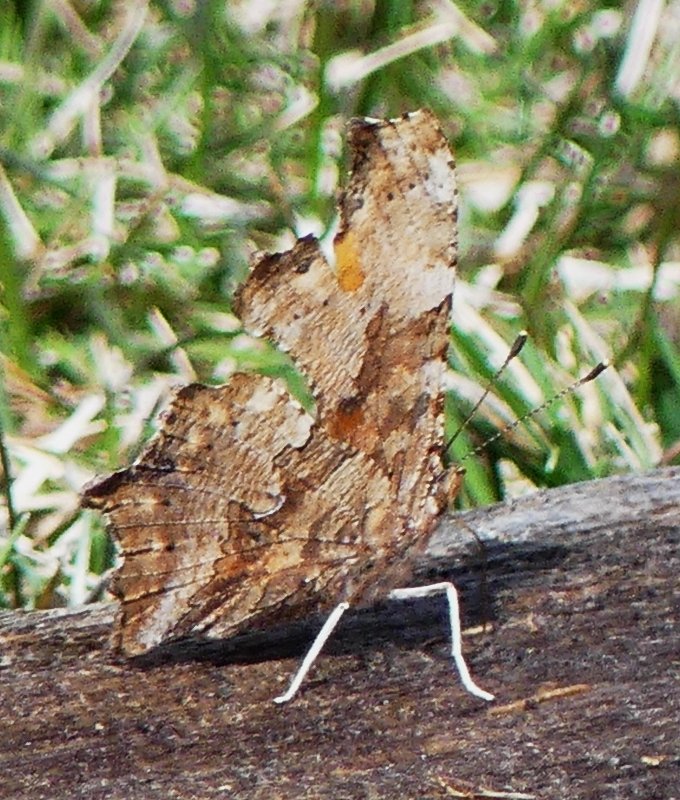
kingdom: Animalia
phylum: Arthropoda
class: Insecta
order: Lepidoptera
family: Nymphalidae
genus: Polygonia
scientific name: Polygonia comma
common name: Eastern Comma
